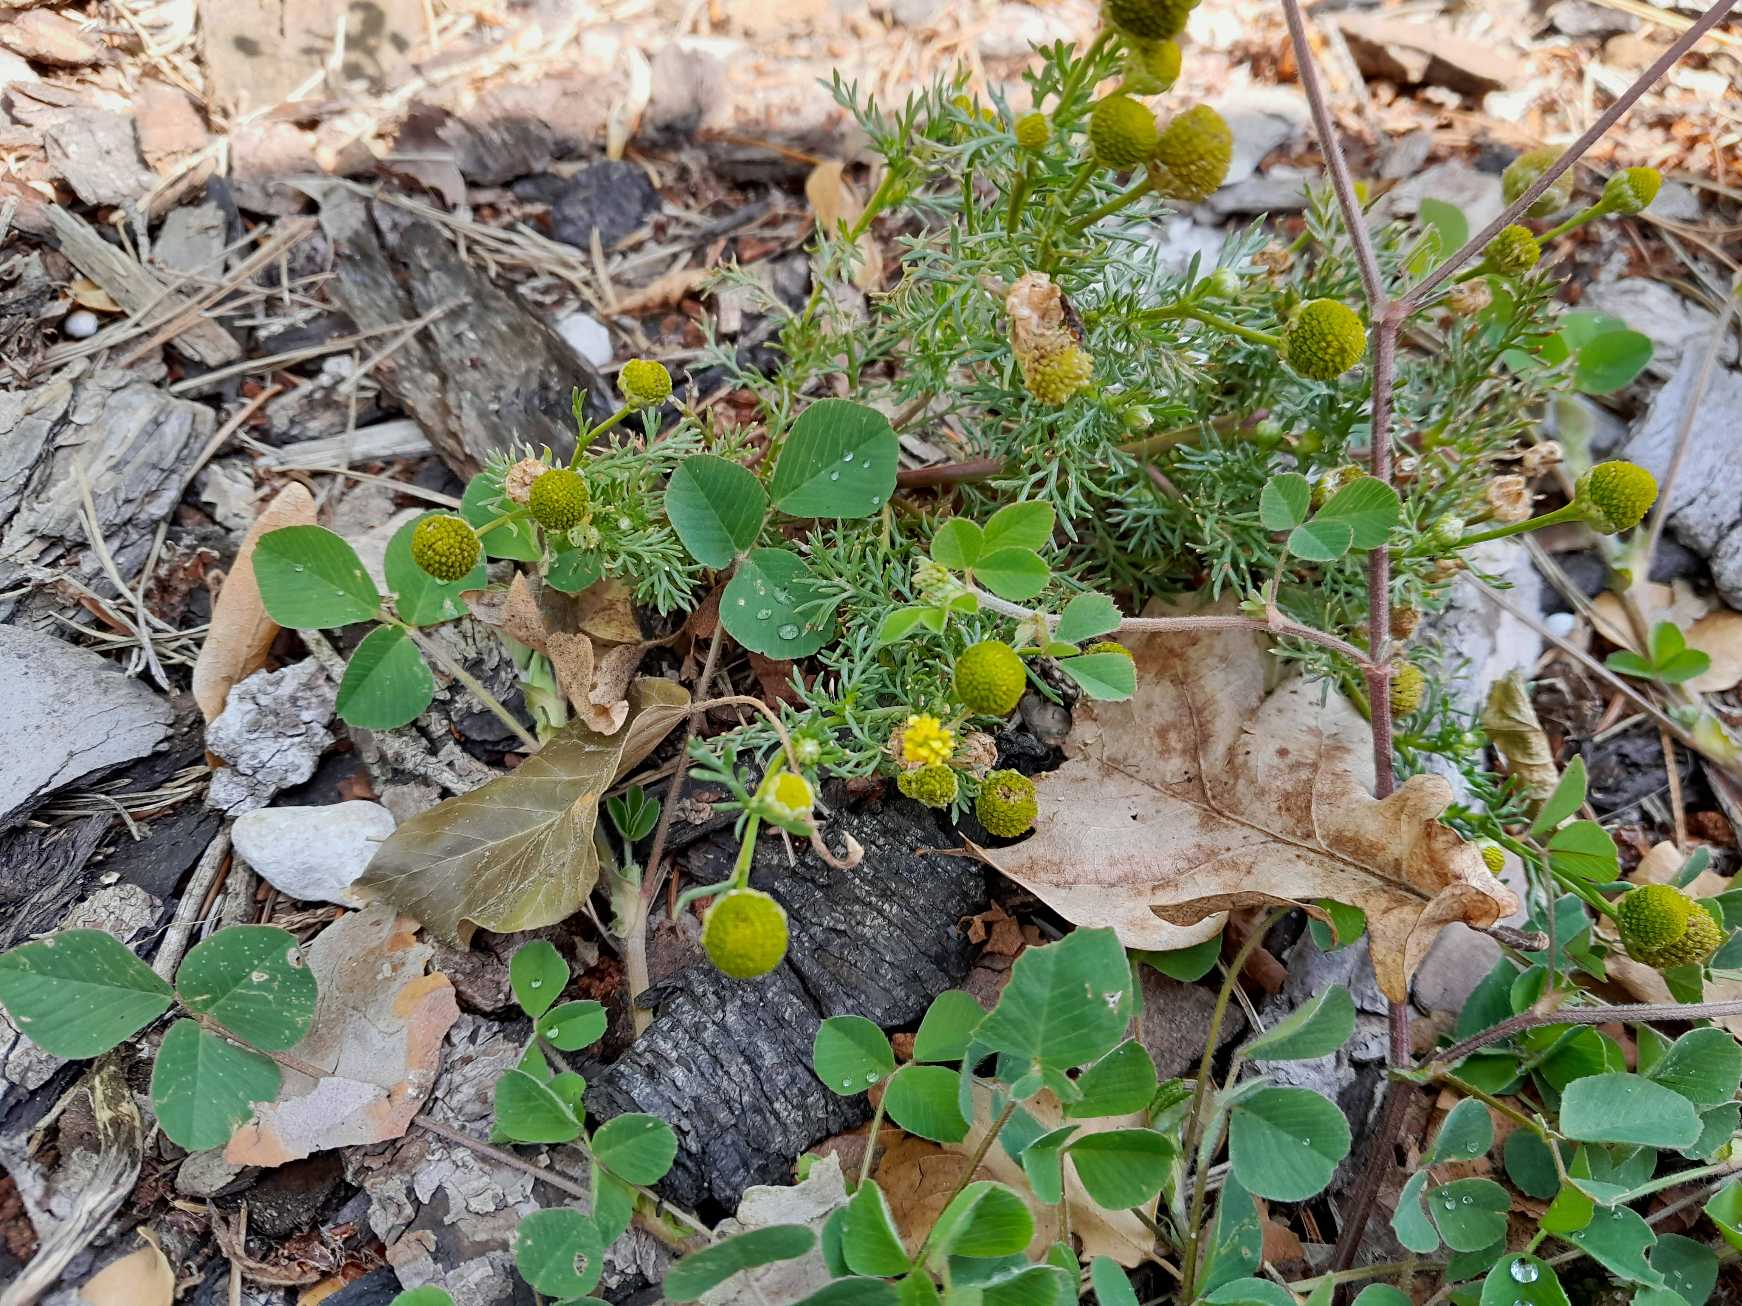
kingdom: Plantae
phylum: Tracheophyta
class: Magnoliopsida
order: Asterales
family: Asteraceae
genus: Matricaria
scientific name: Matricaria discoidea
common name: Skive-kamille
